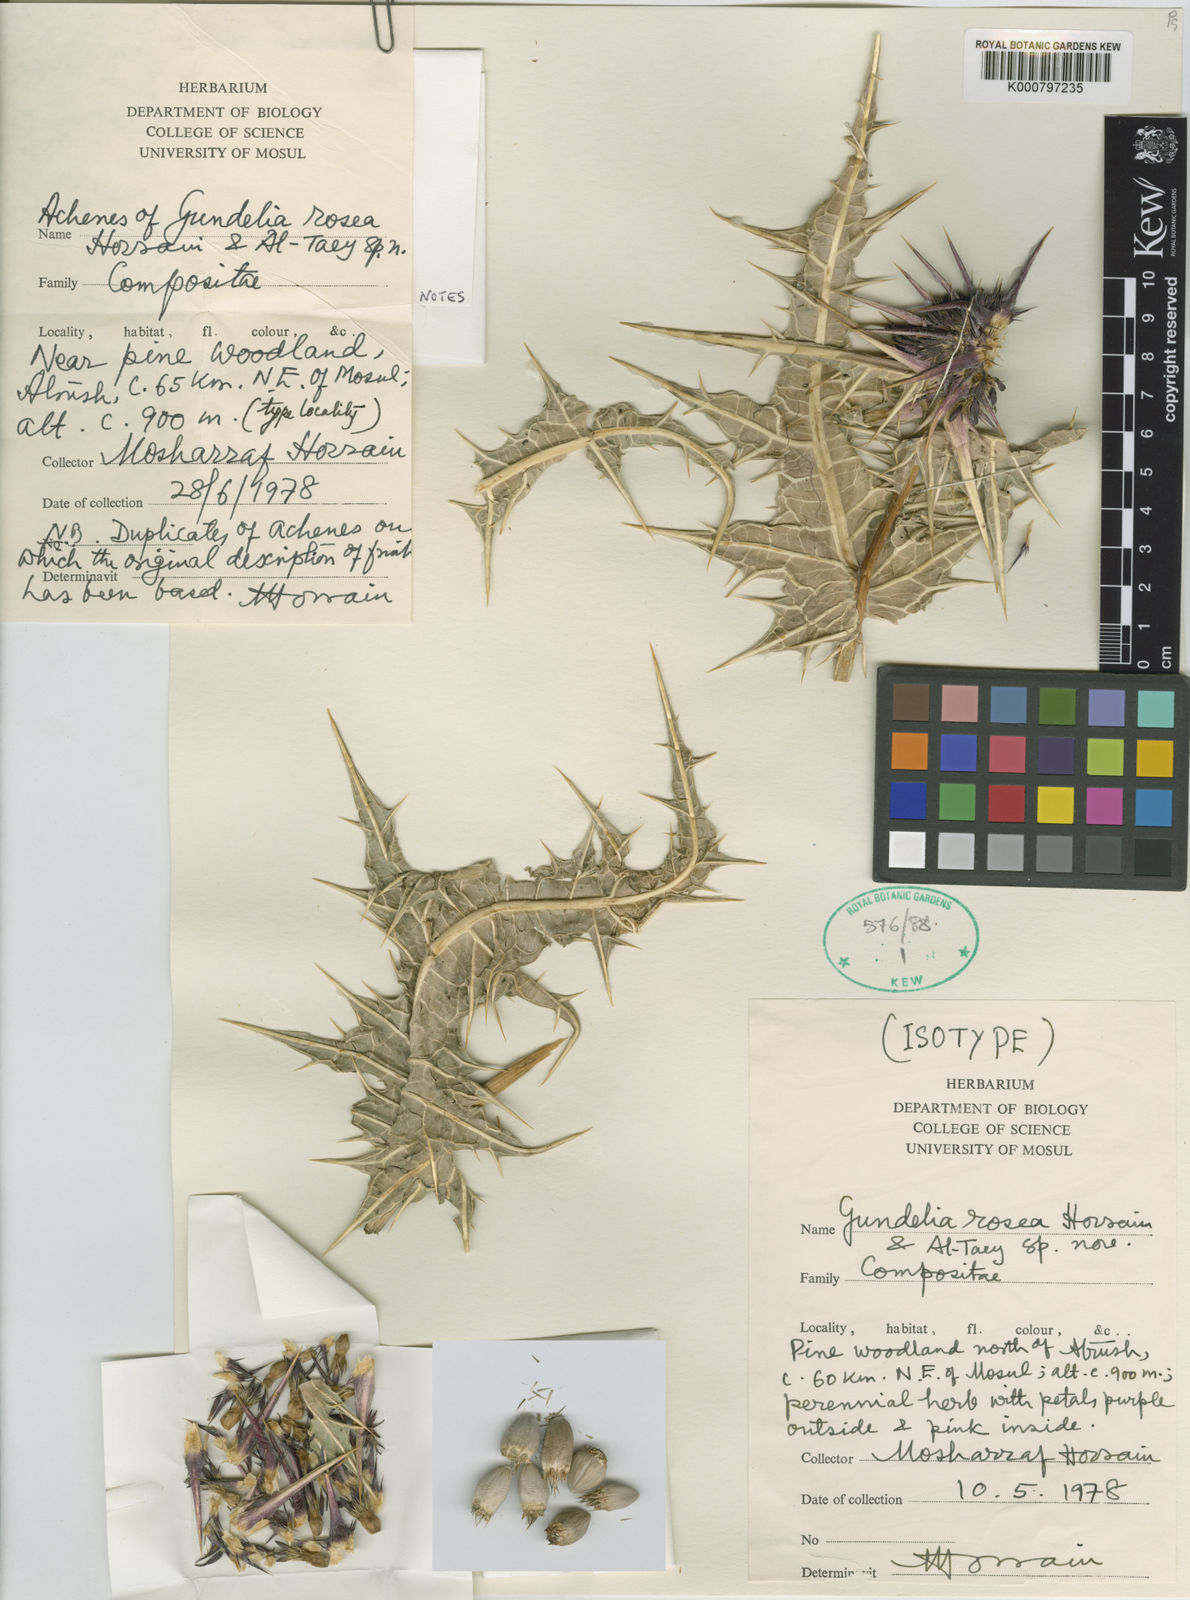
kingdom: Plantae
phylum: Tracheophyta
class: Magnoliopsida
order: Asterales
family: Asteraceae
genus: Gundelia
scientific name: Gundelia rosea
